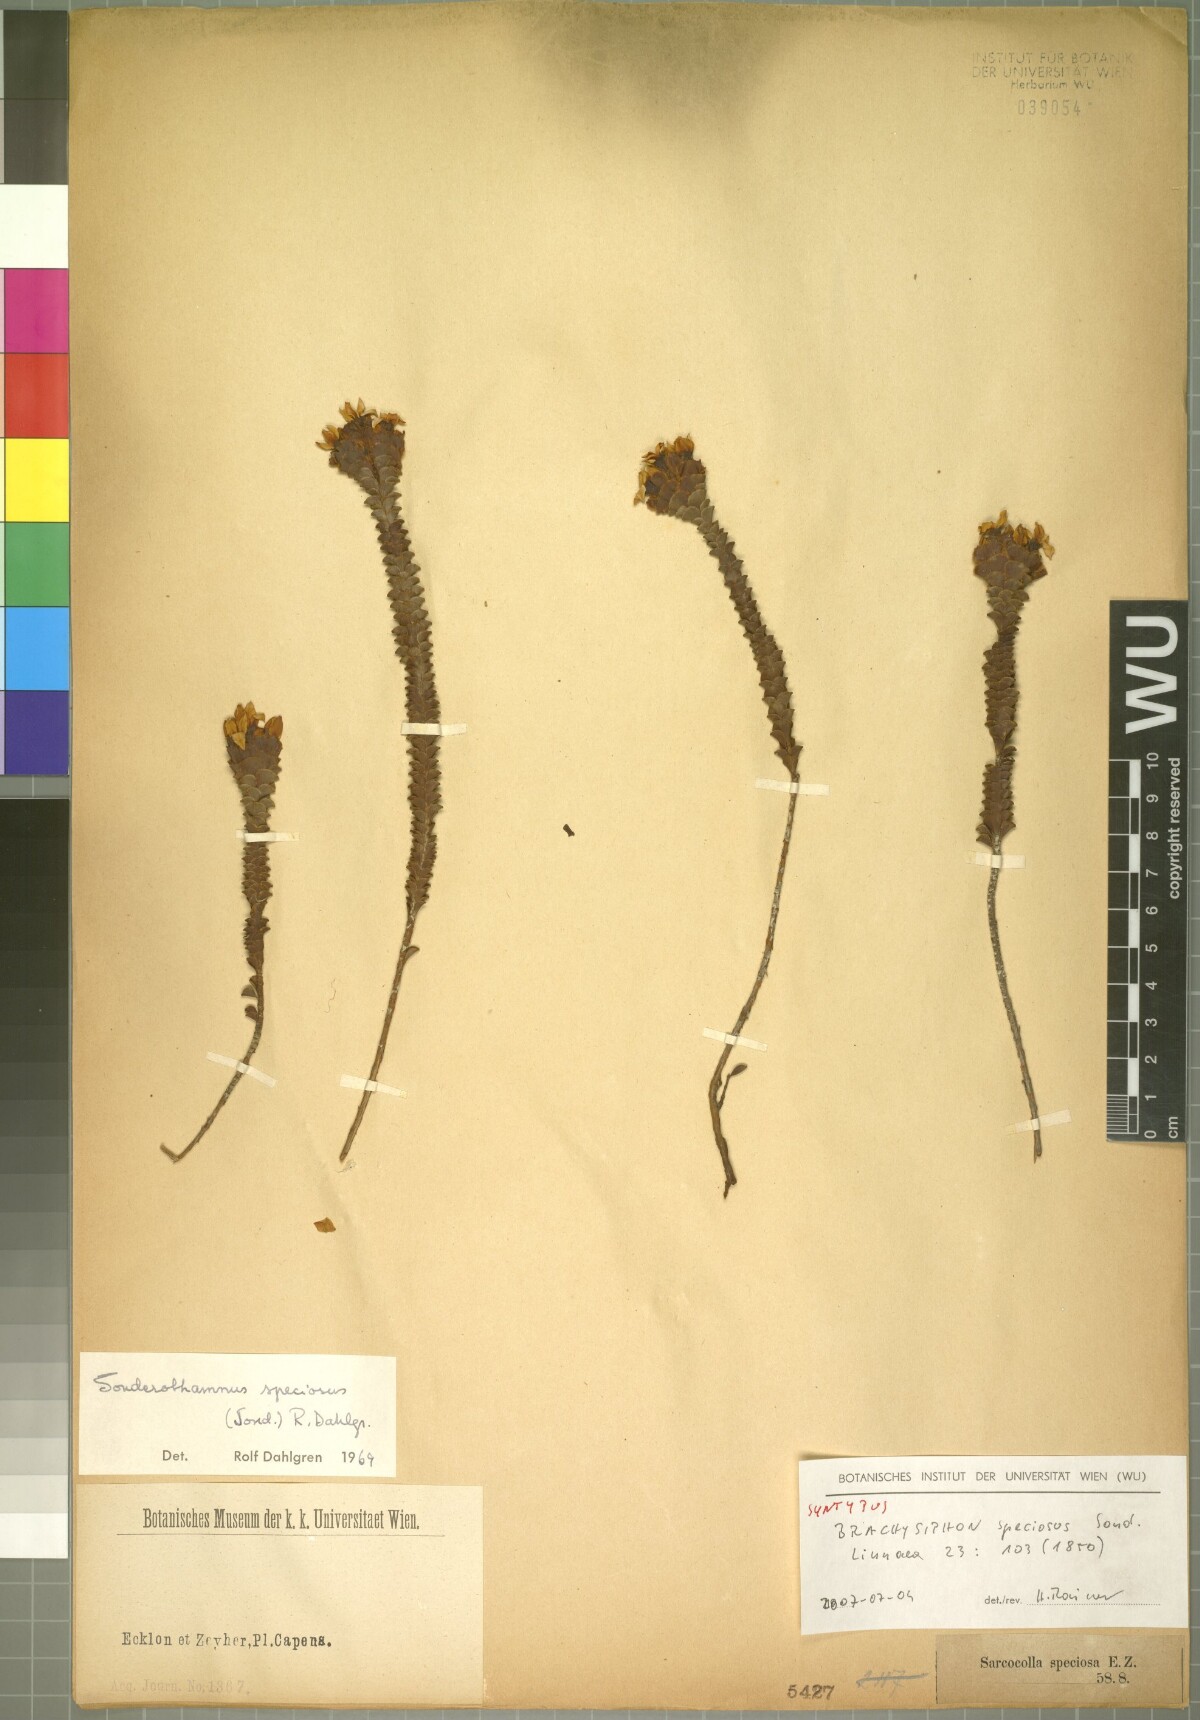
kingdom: Plantae
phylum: Tracheophyta
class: Magnoliopsida
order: Myrtales
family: Penaeaceae
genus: Sonderothamnus
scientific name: Sonderothamnus speciosus
